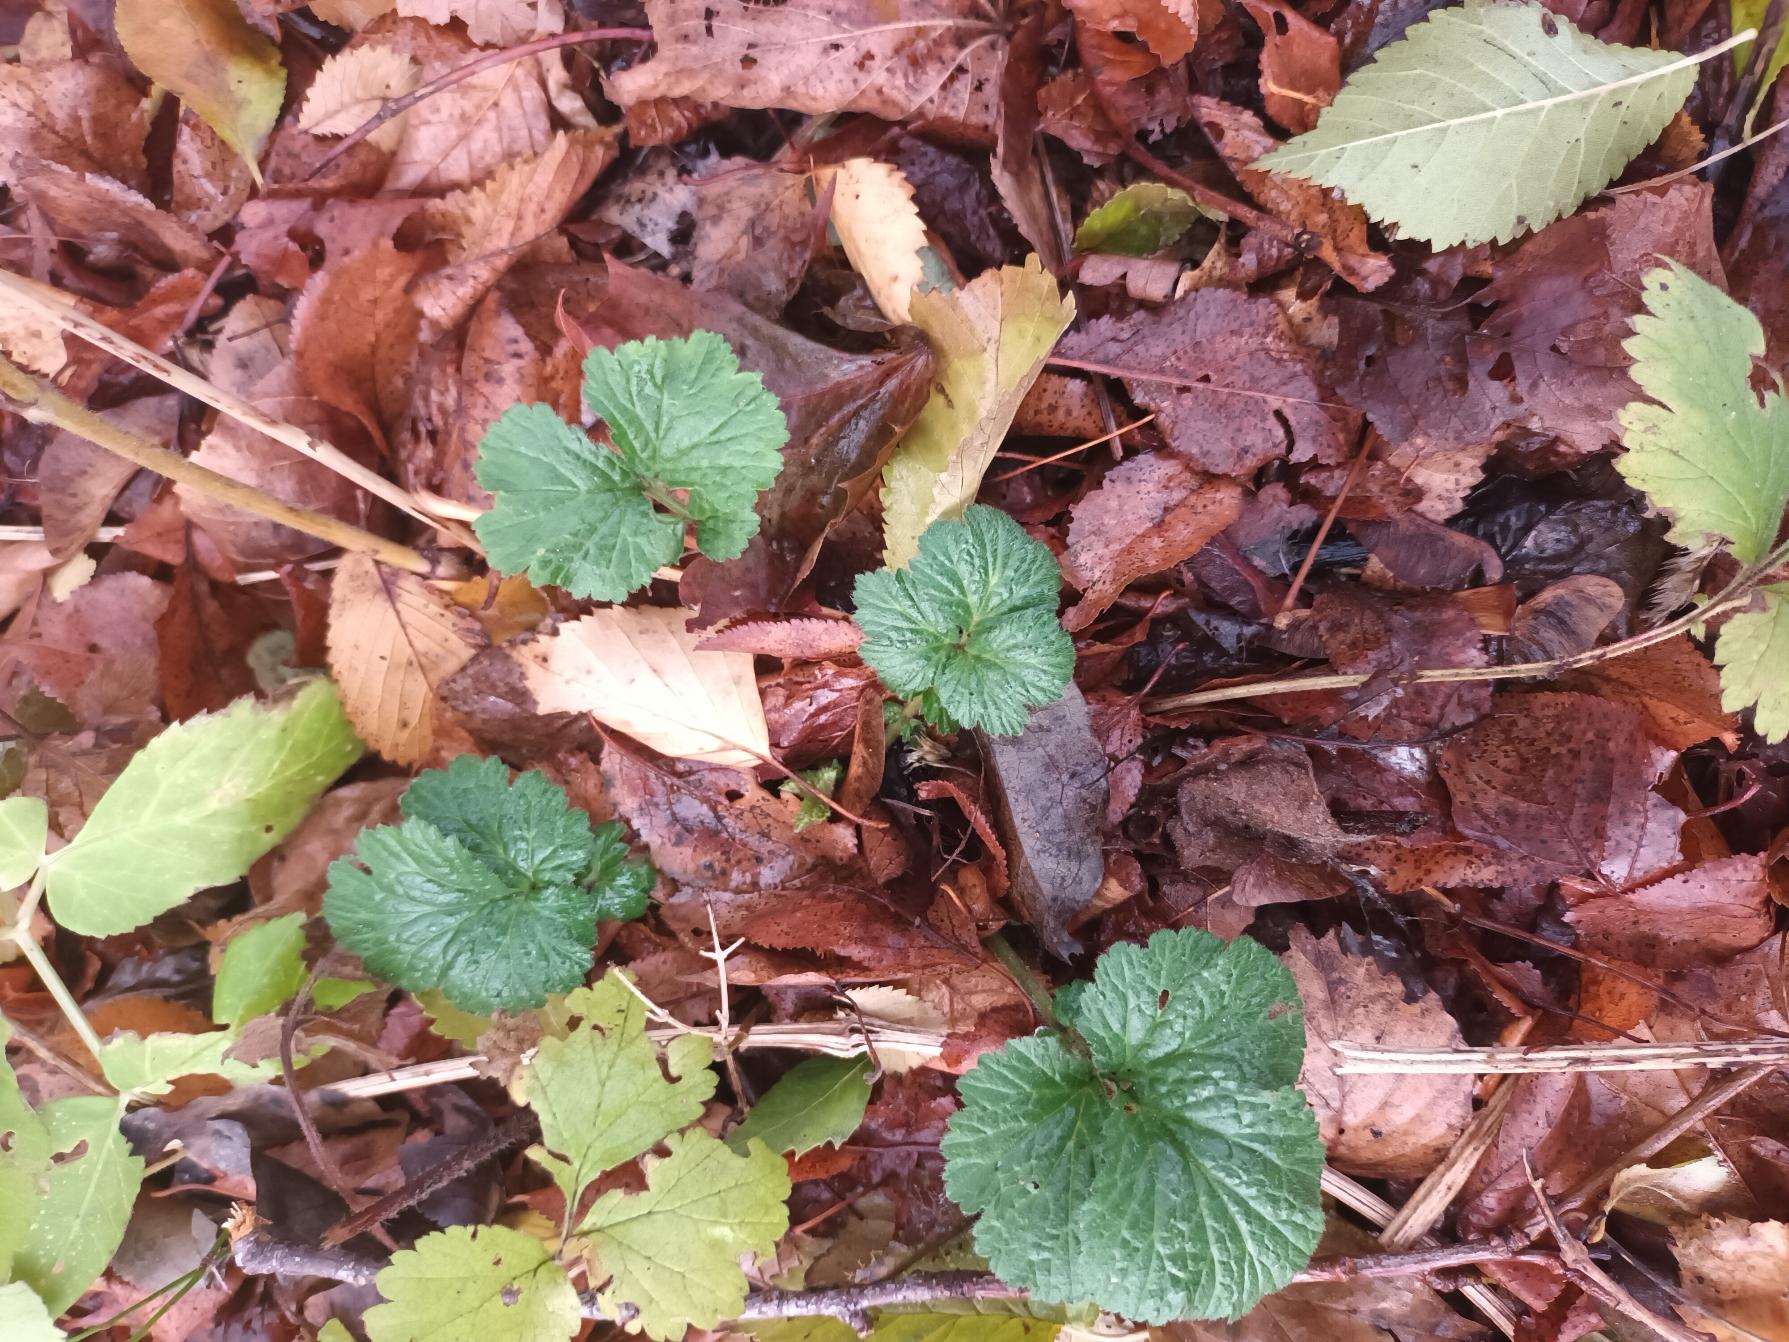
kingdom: Plantae
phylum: Tracheophyta
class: Magnoliopsida
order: Rosales
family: Rosaceae
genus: Geum
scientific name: Geum urbanum
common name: Feber-nellikerod
